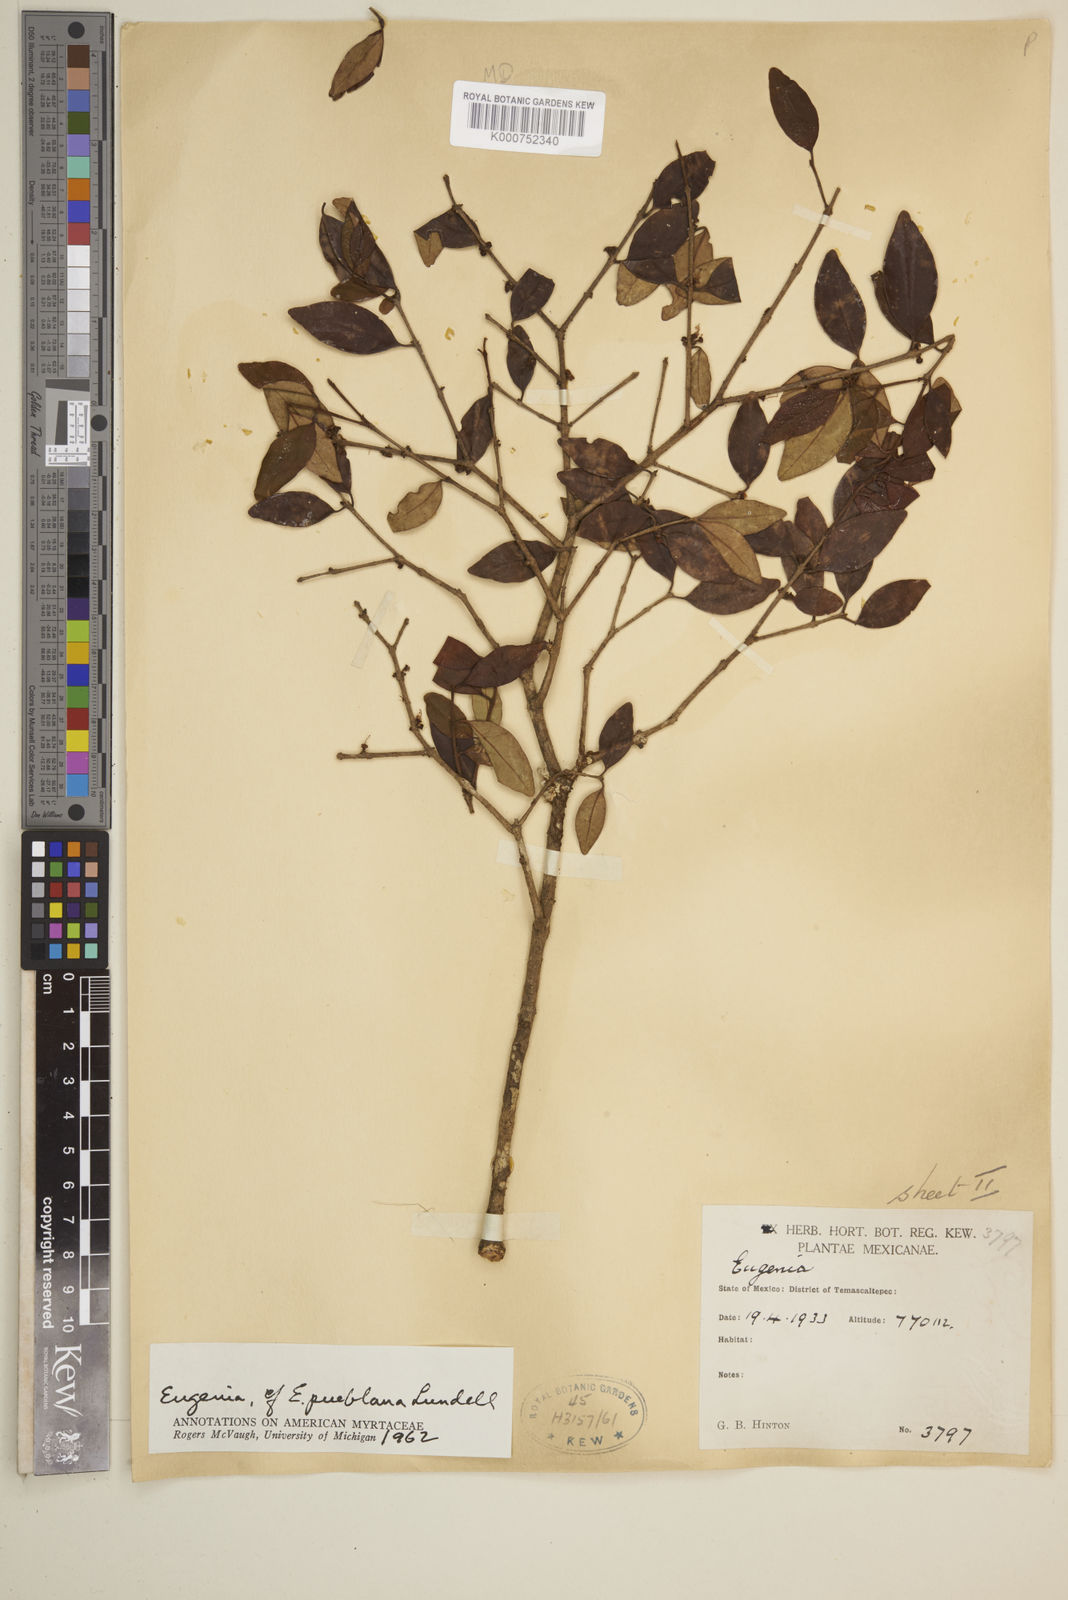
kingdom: Plantae
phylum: Tracheophyta
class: Magnoliopsida
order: Myrtales
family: Myrtaceae
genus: Eugenia
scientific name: Eugenia pueblana
